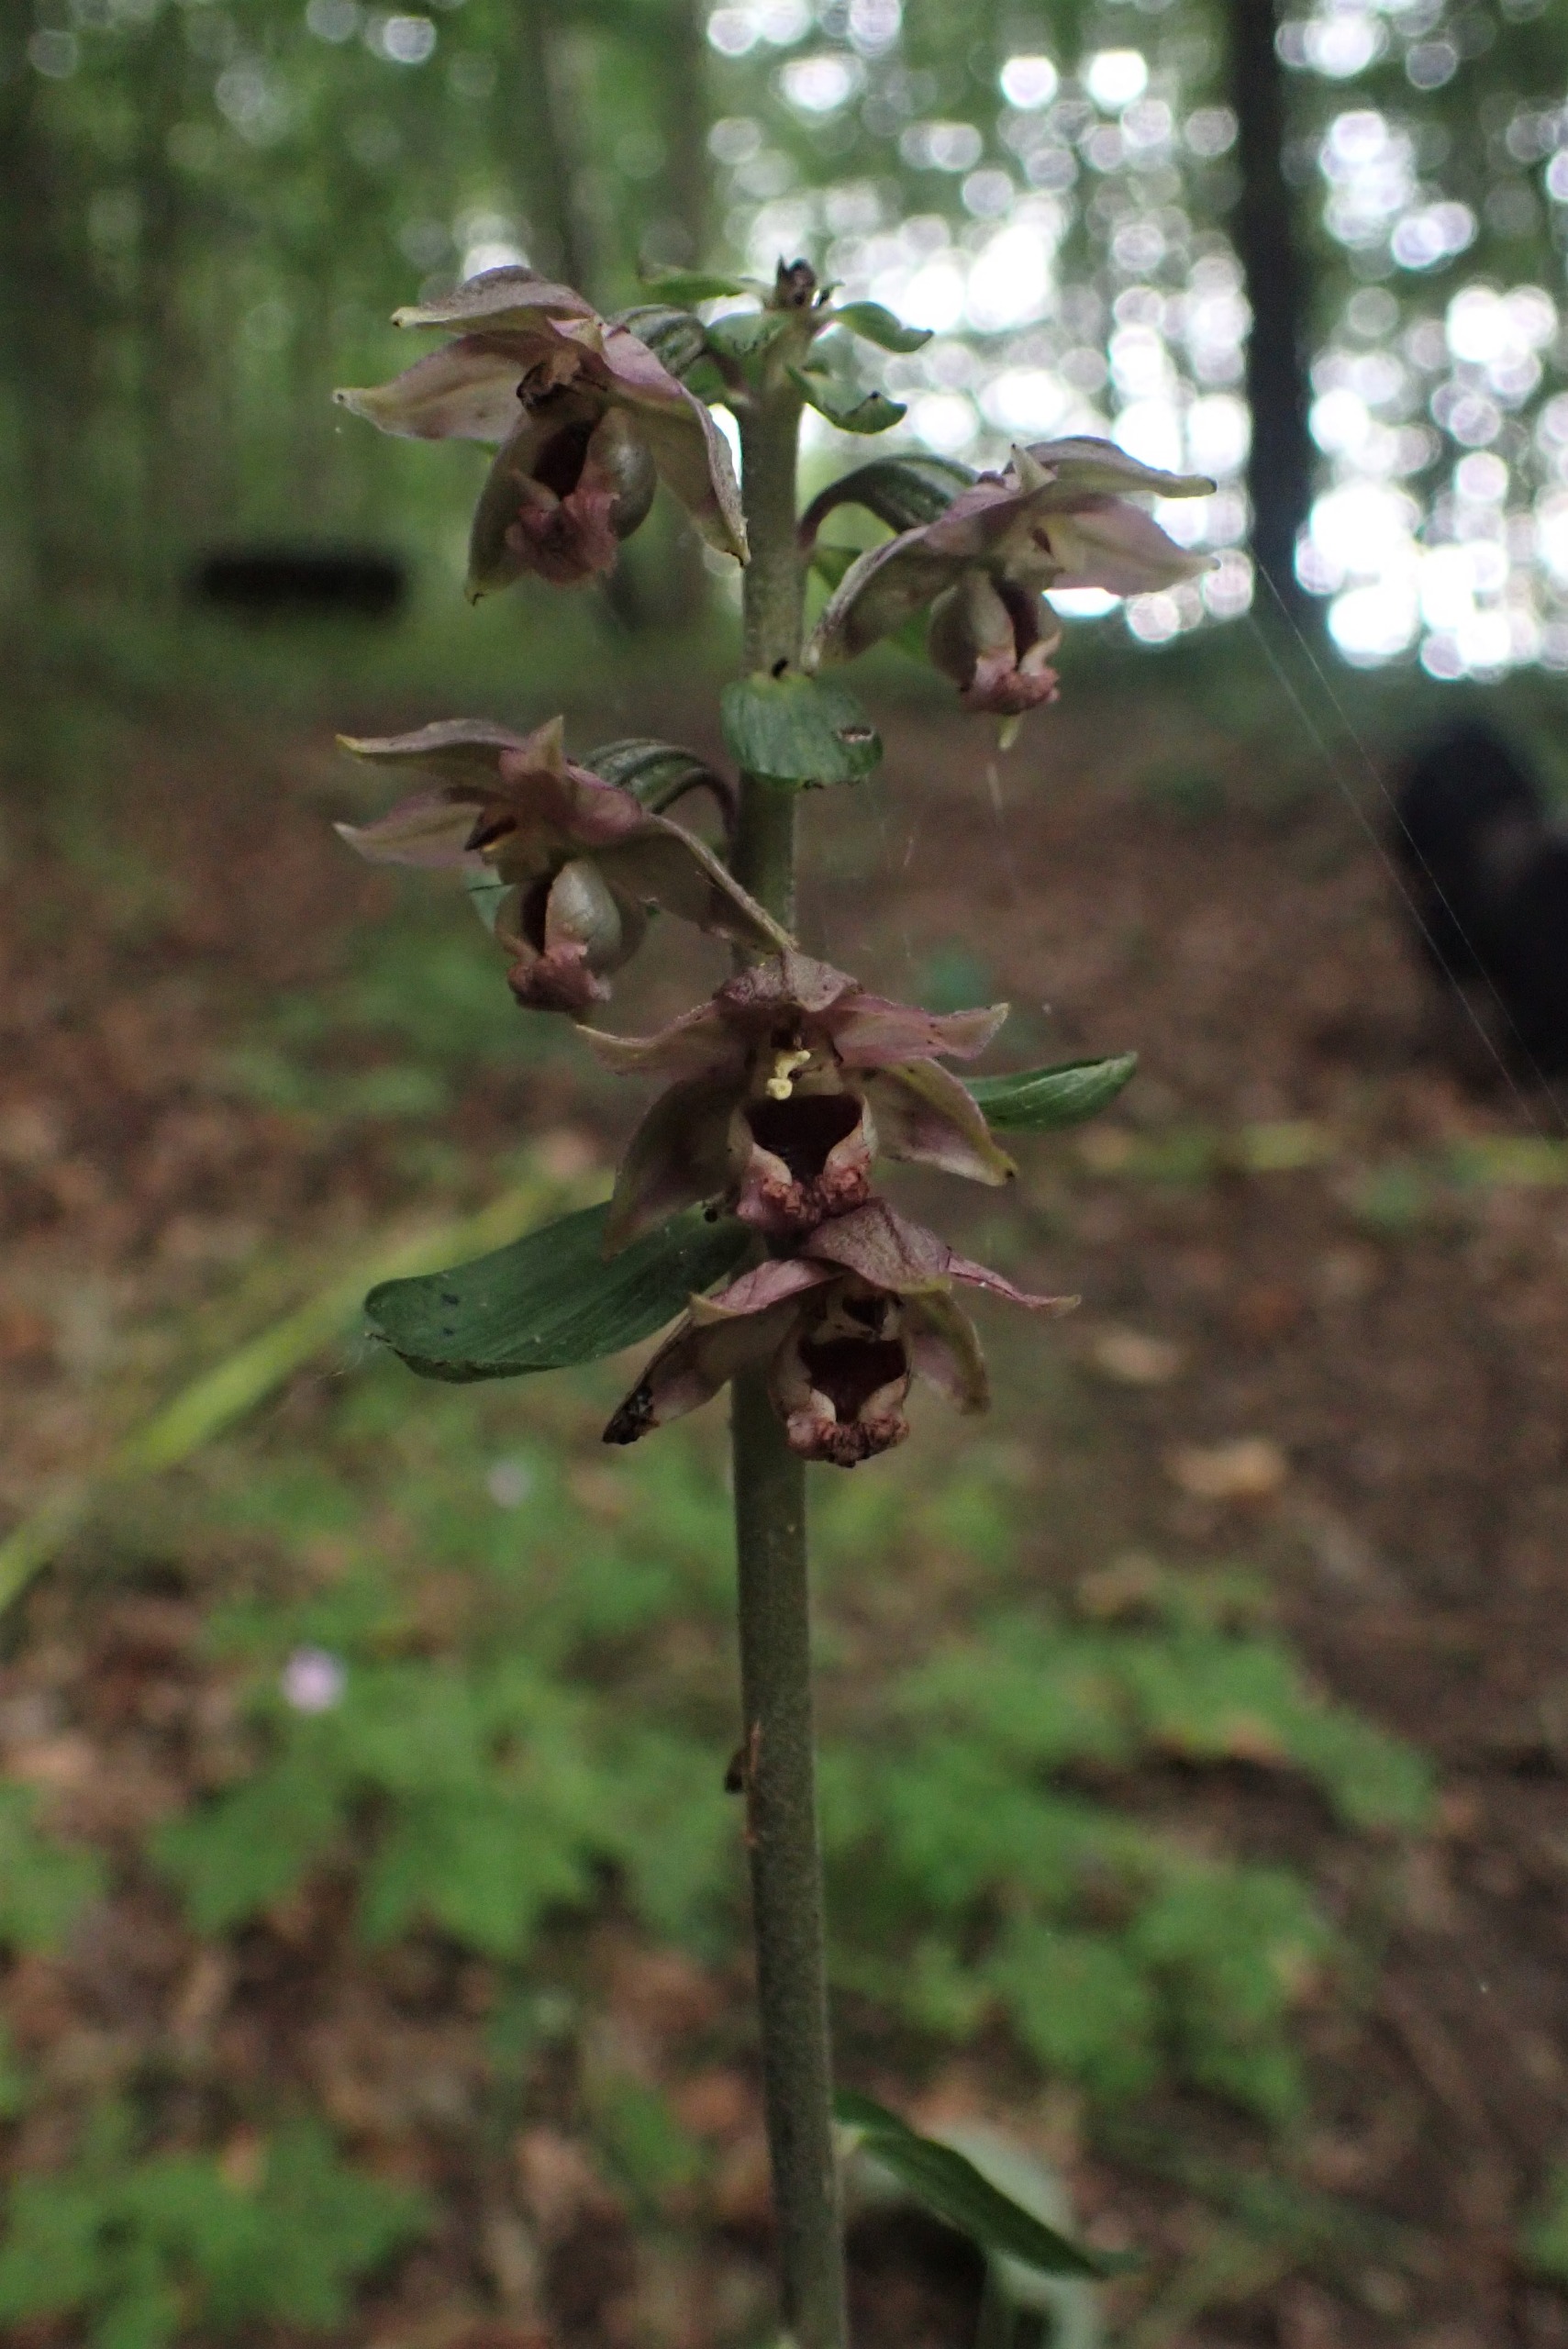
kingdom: Plantae
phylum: Tracheophyta
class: Liliopsida
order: Asparagales
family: Orchidaceae
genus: Epipactis
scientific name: Epipactis helleborine
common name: Skov-hullæbe
